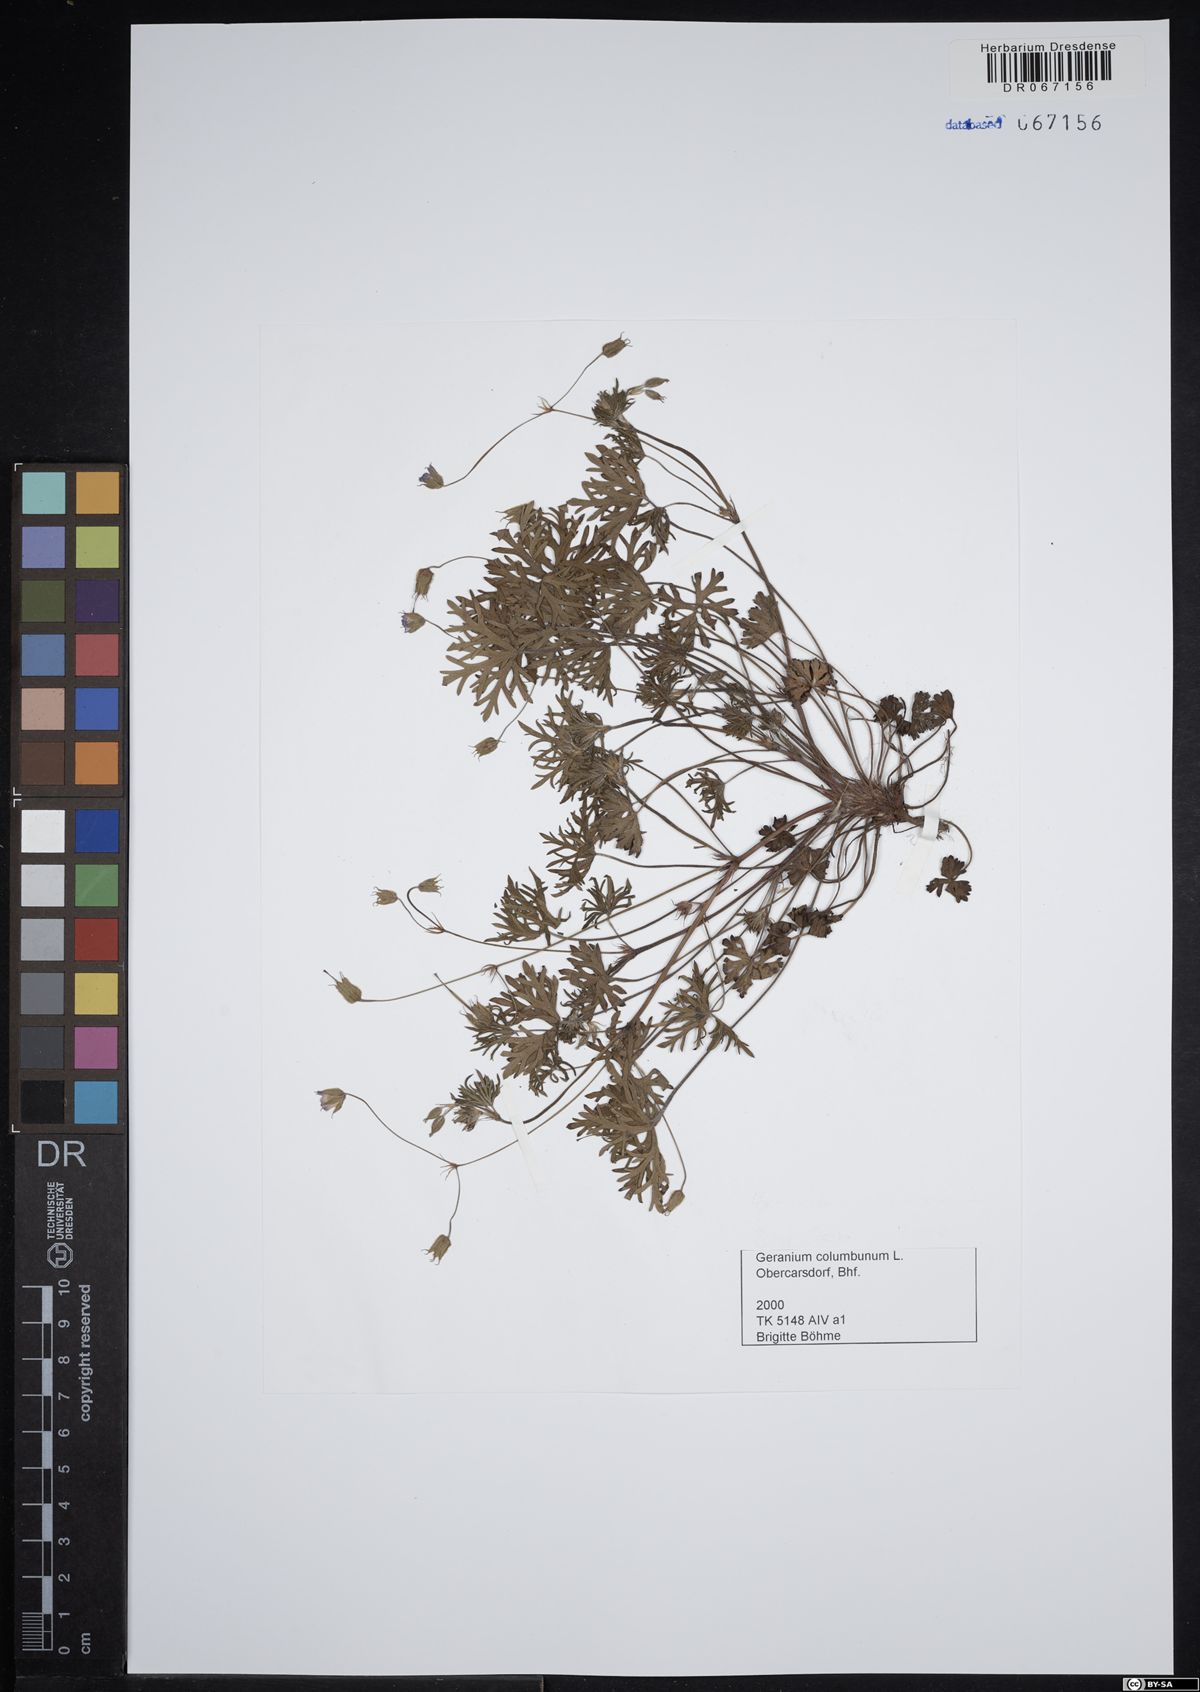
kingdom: Plantae
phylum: Tracheophyta
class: Magnoliopsida
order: Geraniales
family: Geraniaceae
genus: Geranium
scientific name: Geranium columbinum
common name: Long-stalked crane's-bill
